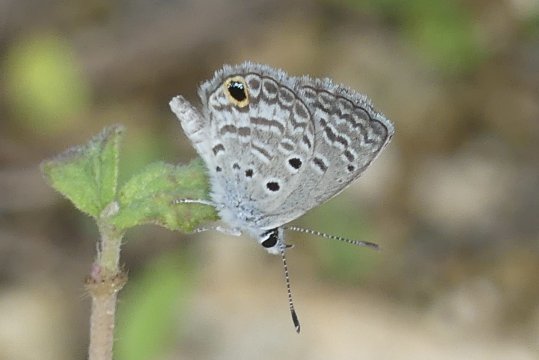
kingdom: Animalia
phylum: Arthropoda
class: Insecta
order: Lepidoptera
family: Lycaenidae
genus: Hemiargus
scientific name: Hemiargus ceraunus
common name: Ceraunus Blue
